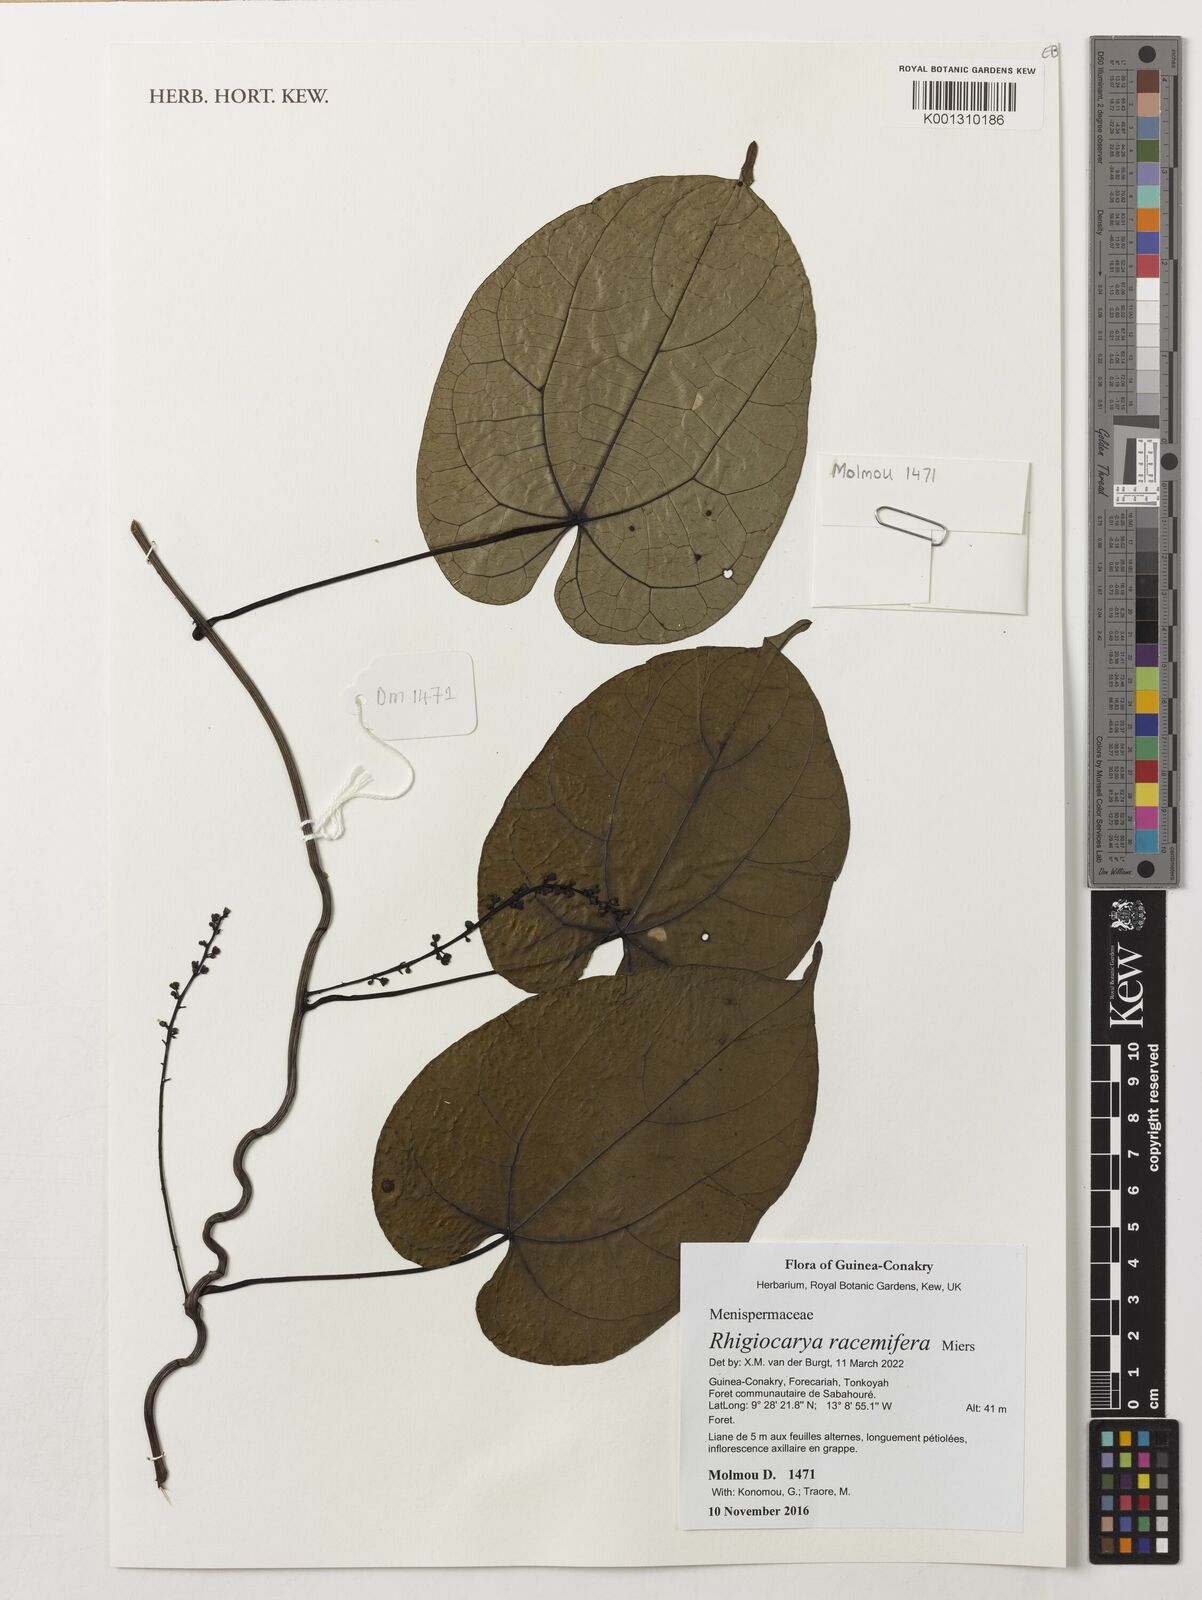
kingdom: Plantae
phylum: Tracheophyta
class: Magnoliopsida
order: Ranunculales
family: Menispermaceae
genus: Rhigiocarya
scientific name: Rhigiocarya racemifera
